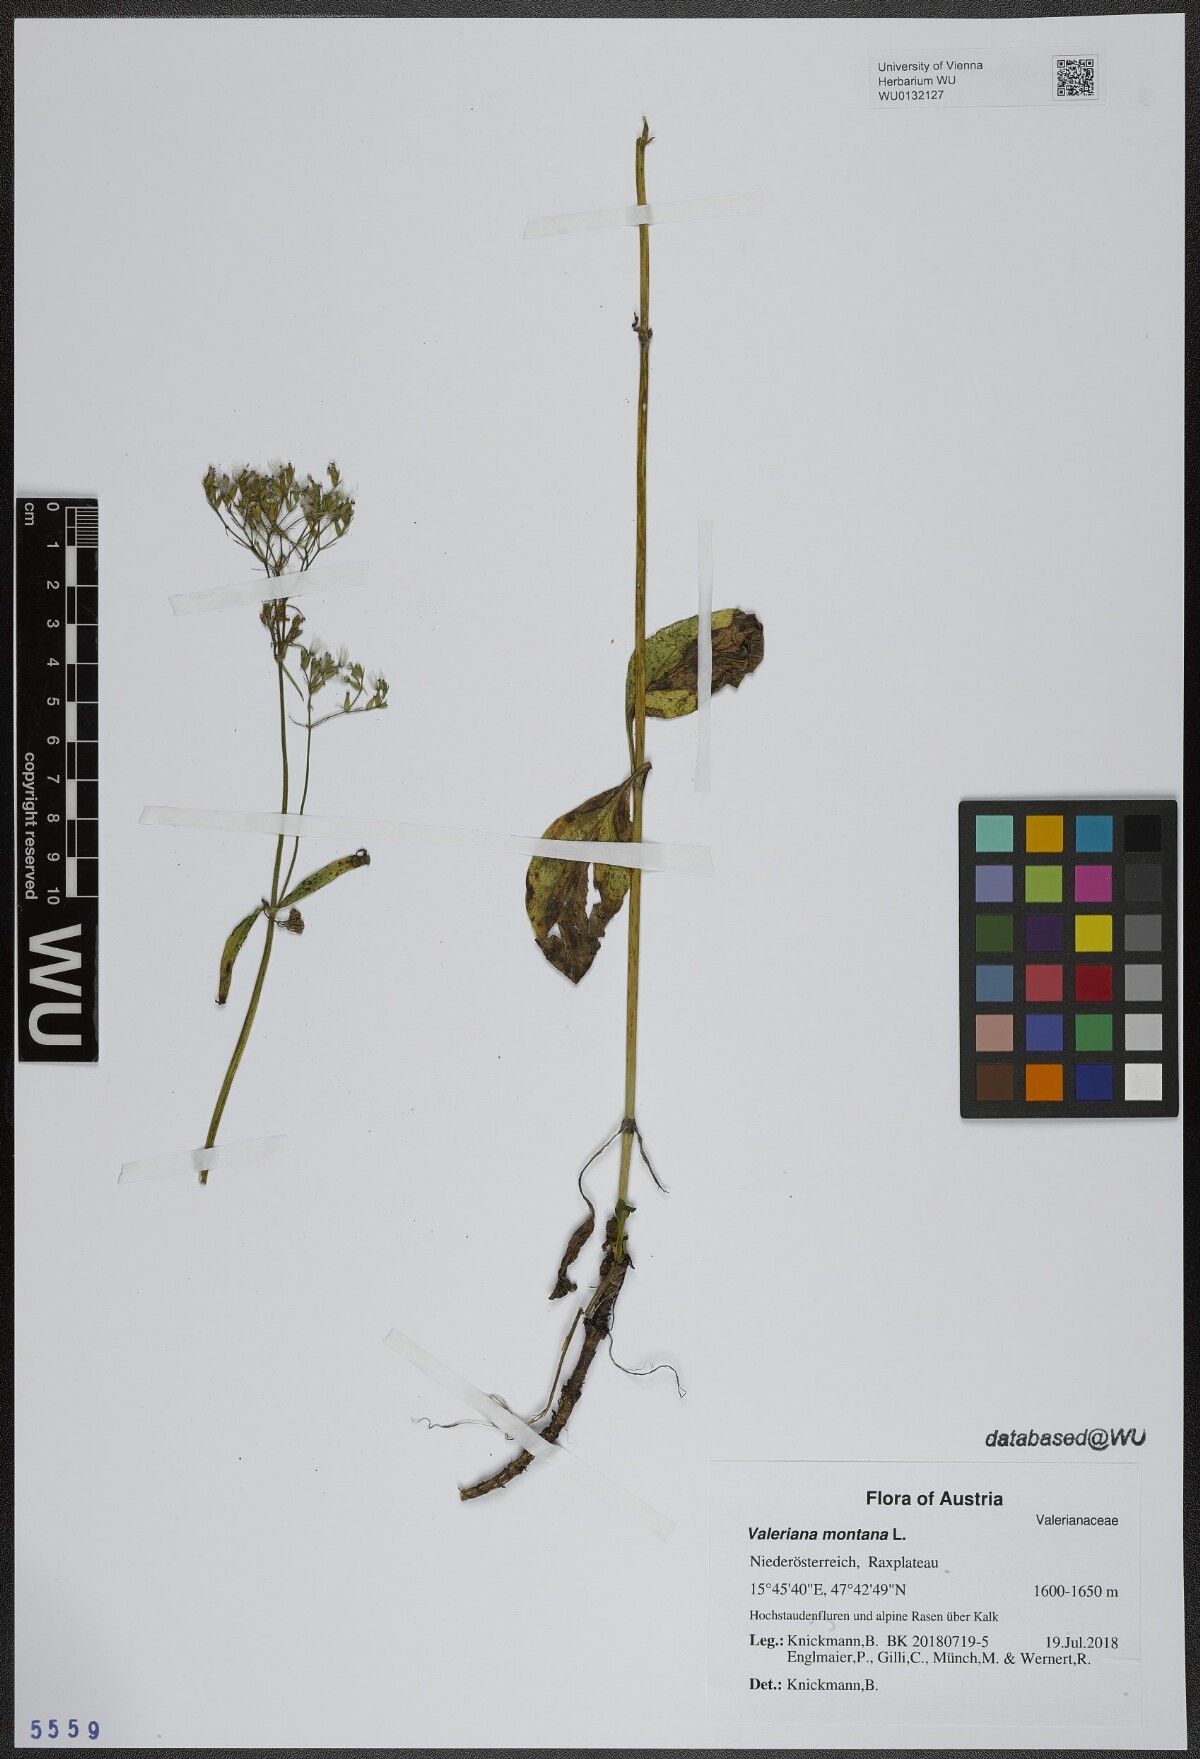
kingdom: Plantae
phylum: Tracheophyta
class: Magnoliopsida
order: Dipsacales
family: Caprifoliaceae
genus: Valeriana
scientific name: Valeriana montana
